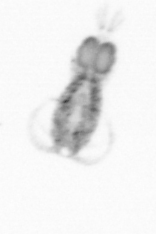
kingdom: Animalia
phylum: Arthropoda
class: Copepoda
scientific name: Copepoda
